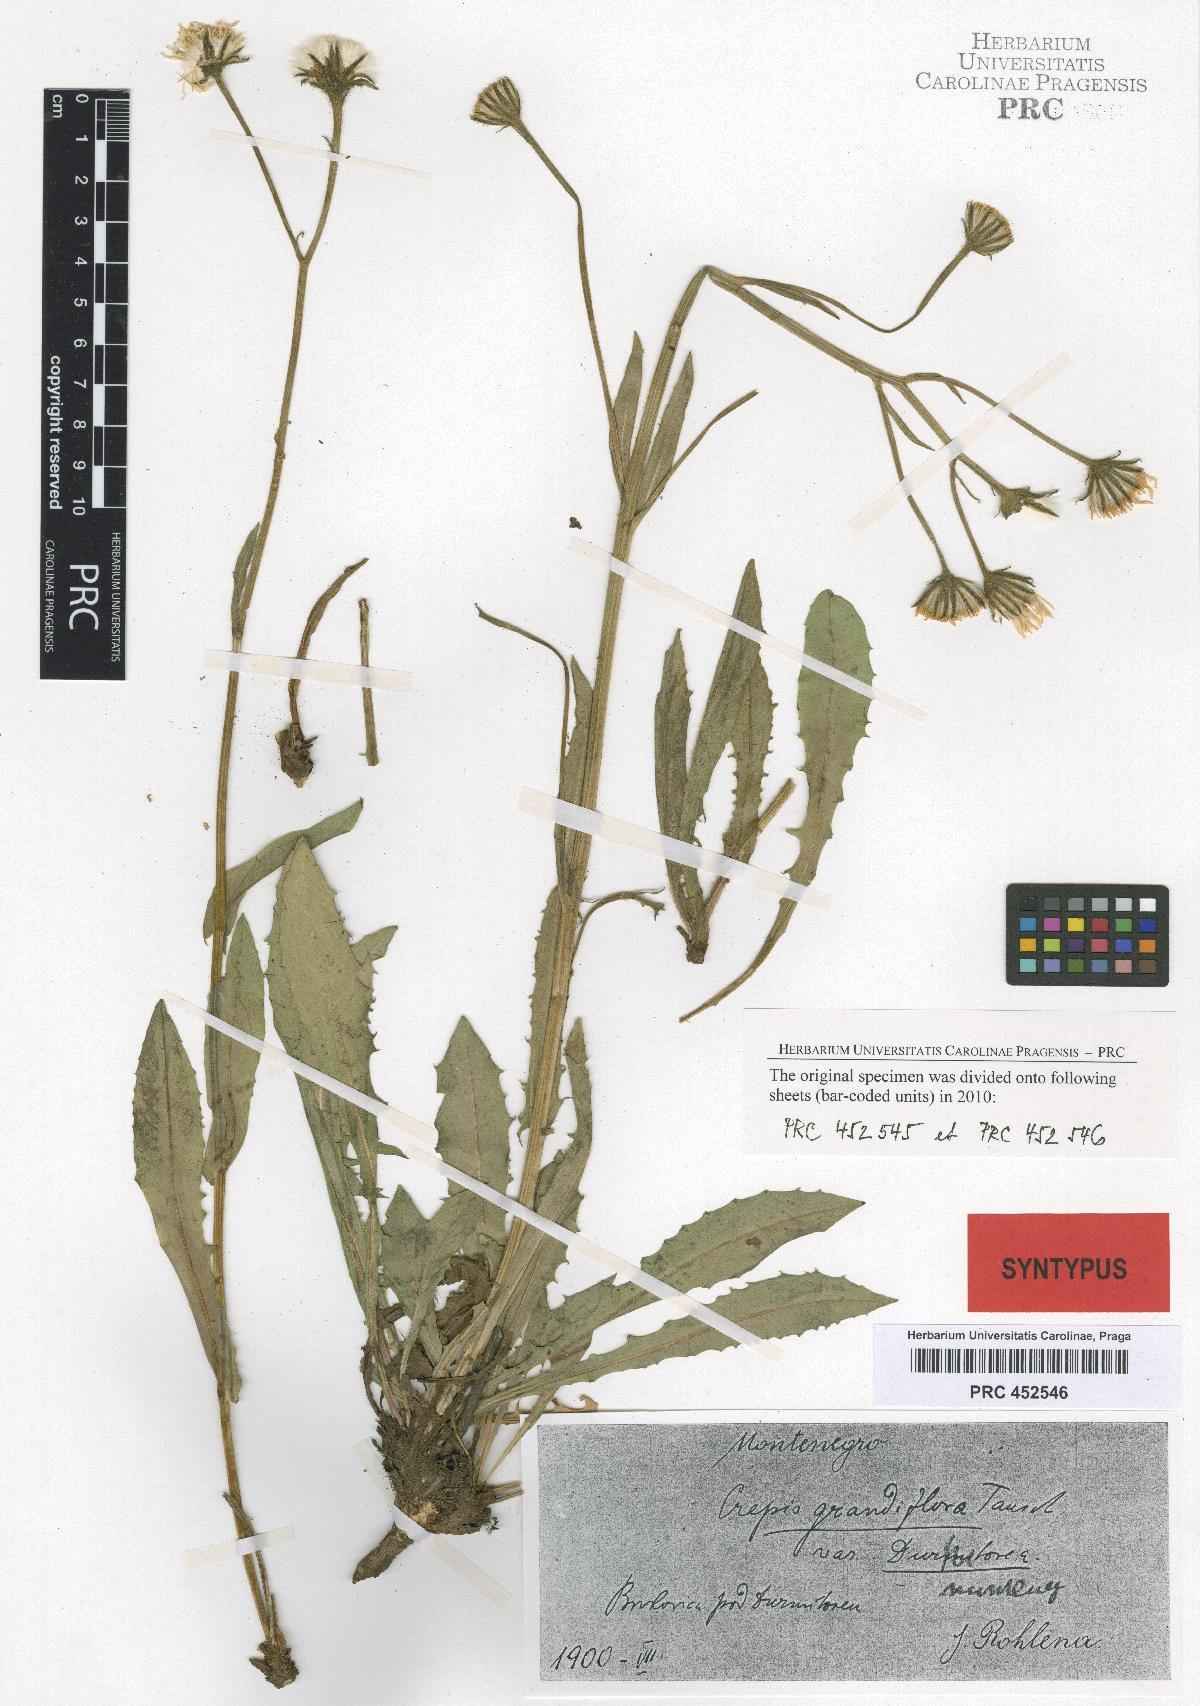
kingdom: Plantae
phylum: Tracheophyta
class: Magnoliopsida
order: Asterales
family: Asteraceae
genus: Crepis
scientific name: Crepis pyrenaica
